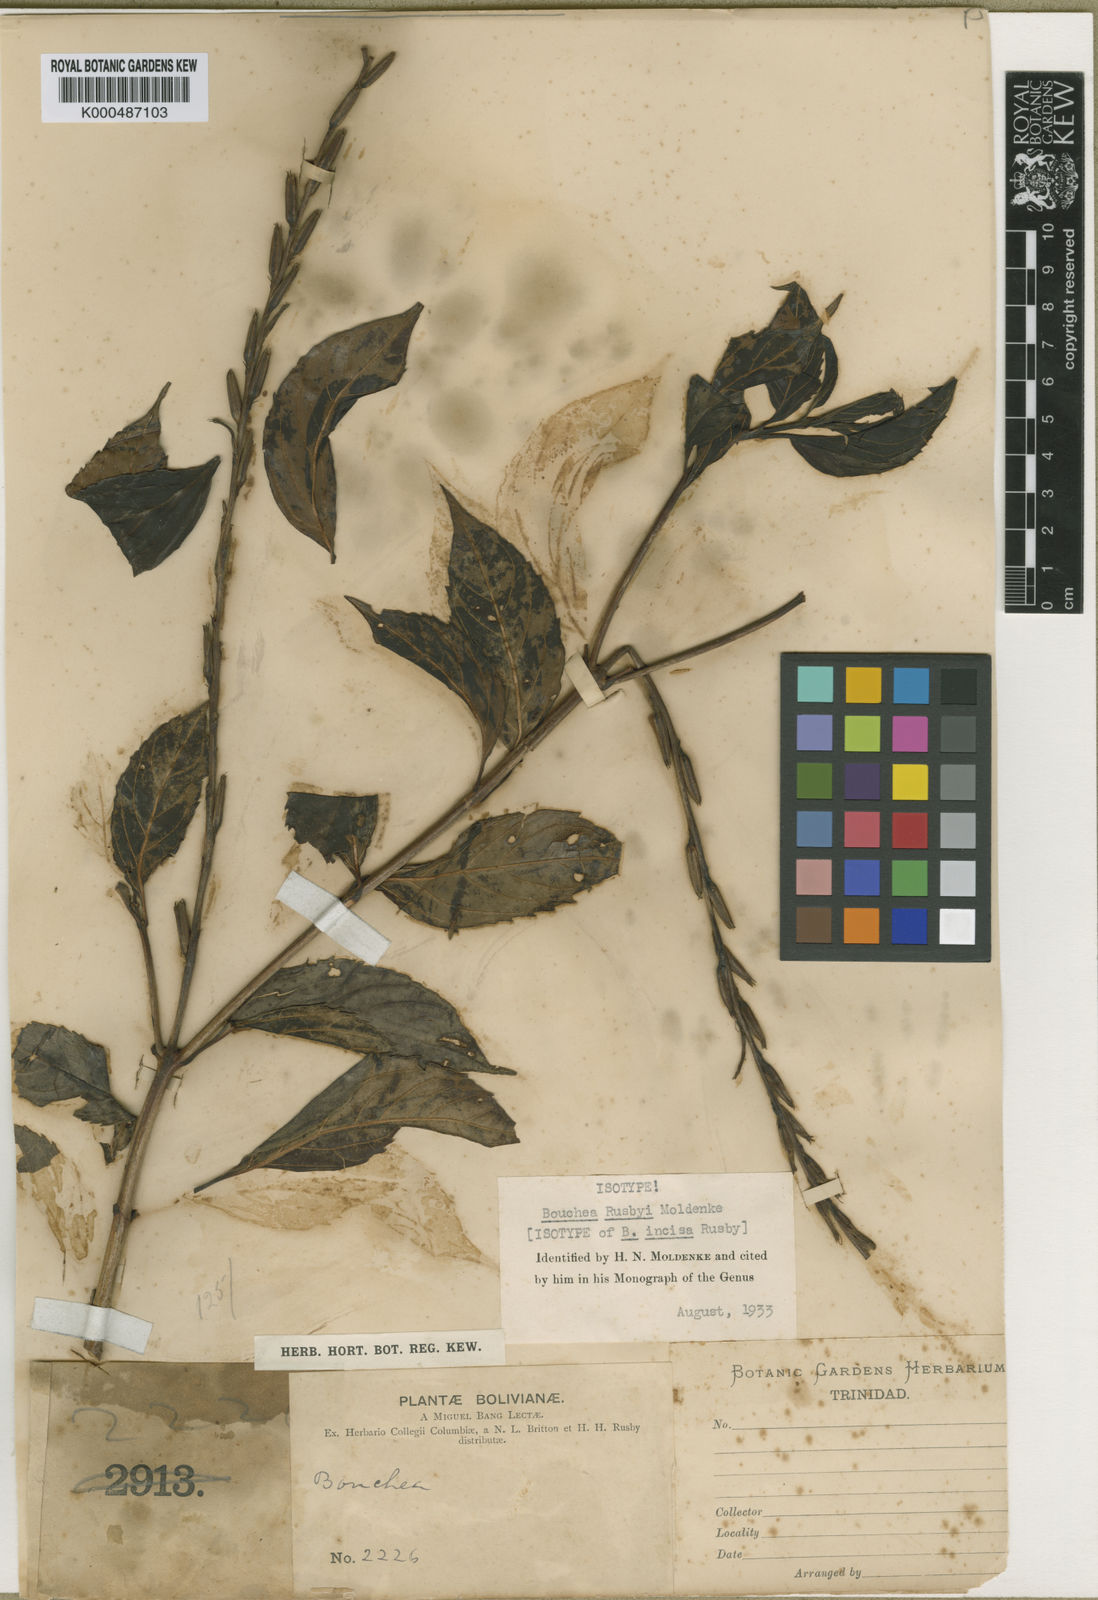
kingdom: Plantae
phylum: Tracheophyta
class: Magnoliopsida
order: Lamiales
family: Verbenaceae
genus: Bouchea
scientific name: Bouchea rusbyi
